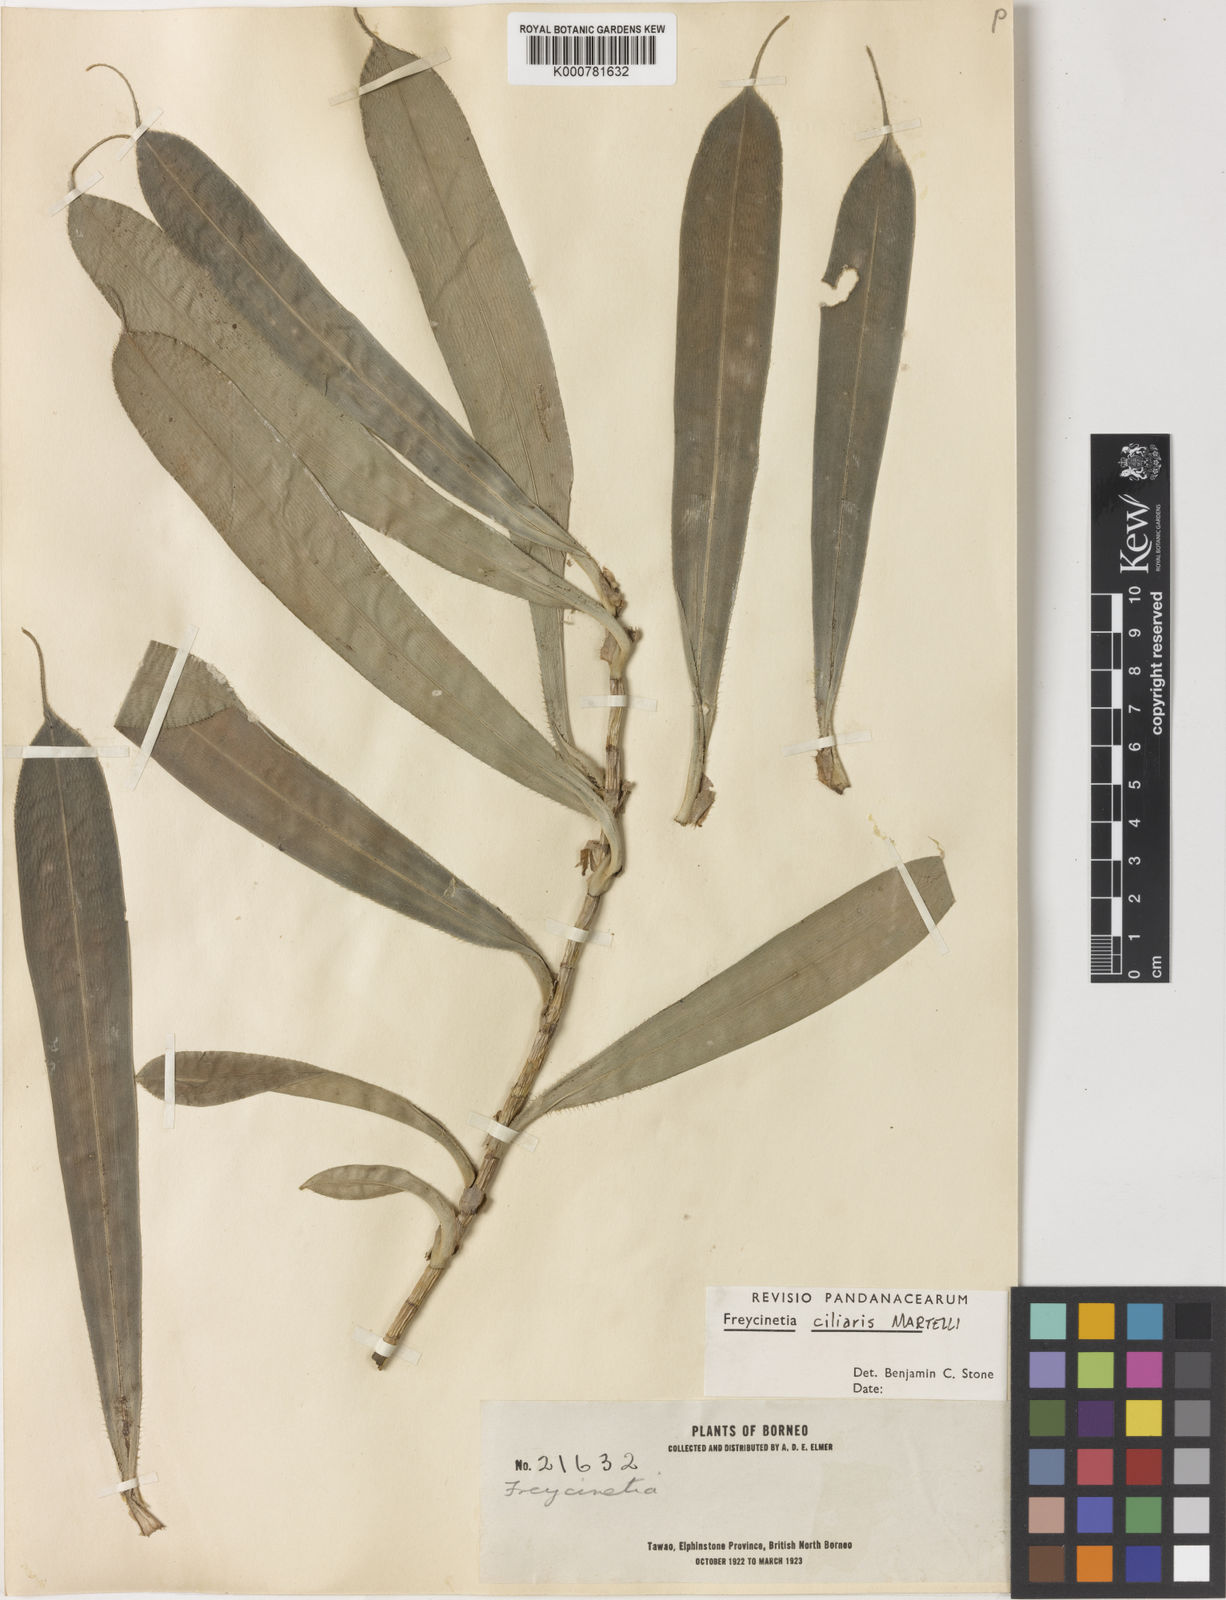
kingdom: Plantae
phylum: Tracheophyta
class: Liliopsida
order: Pandanales
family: Pandanaceae
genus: Freycinetia
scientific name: Freycinetia ciliaris
